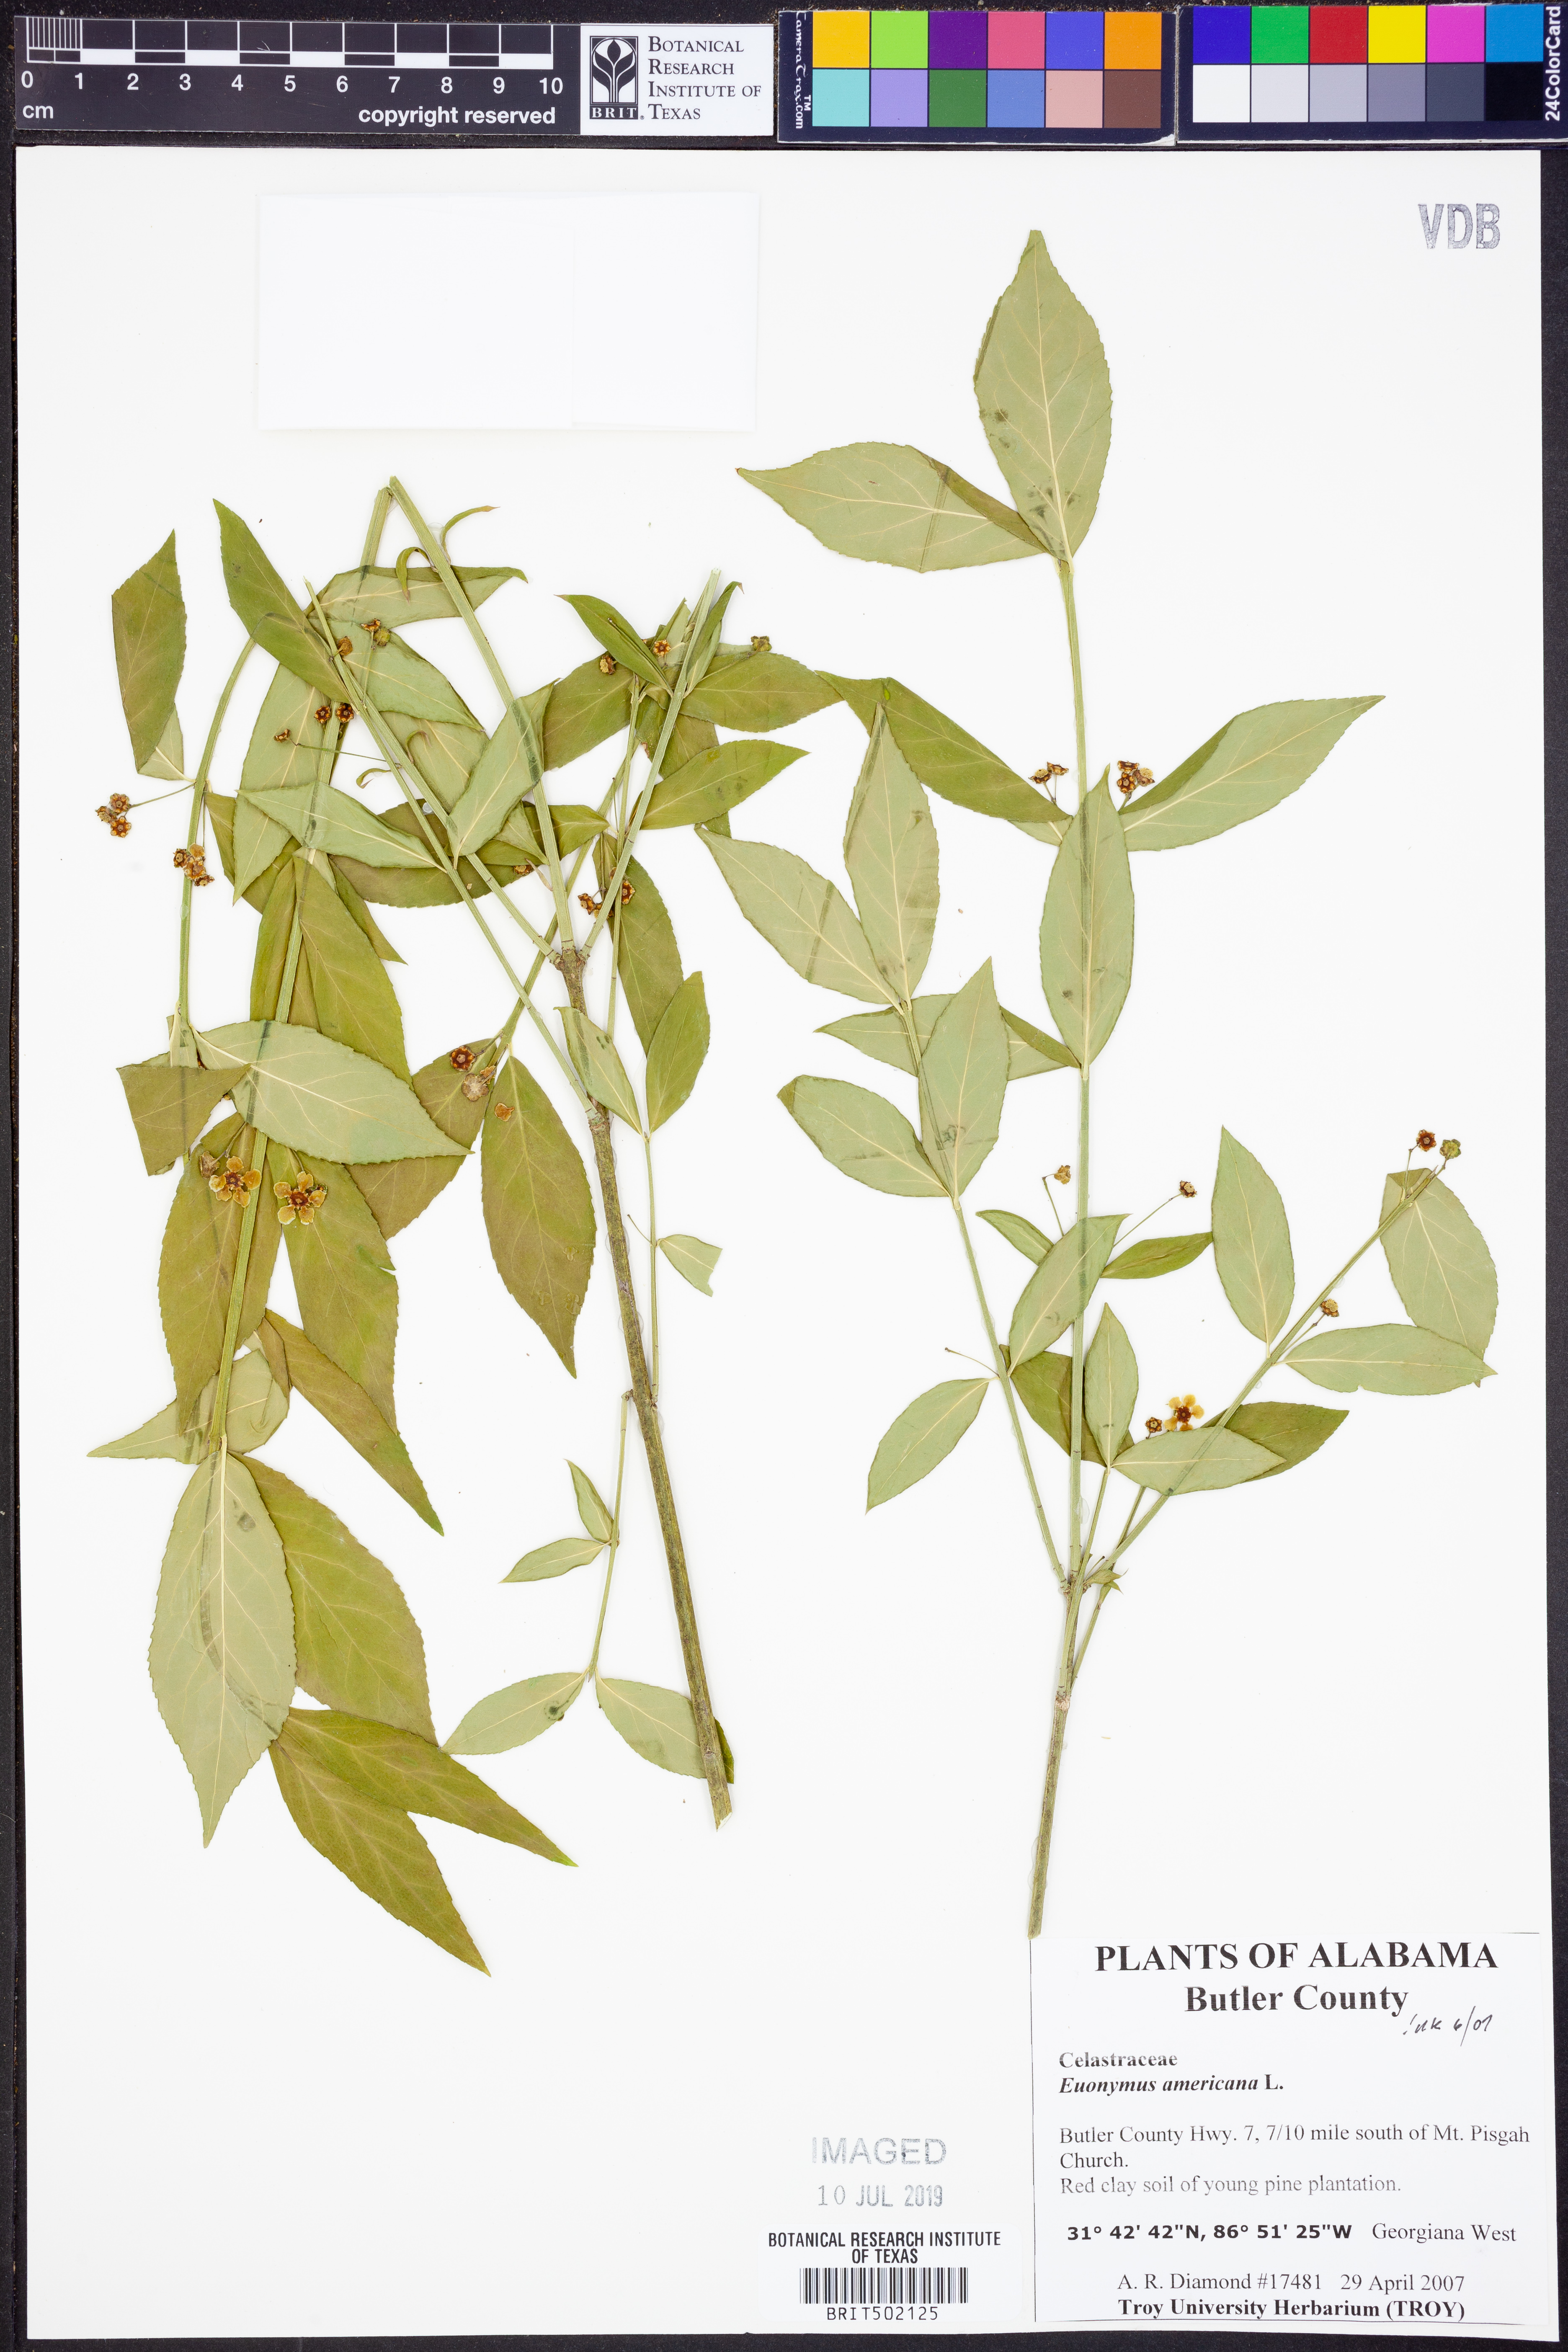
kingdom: Plantae
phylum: Tracheophyta
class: Magnoliopsida
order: Celastrales
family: Celastraceae
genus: Euonymus
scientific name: Euonymus americanus
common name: Bursting-heart
